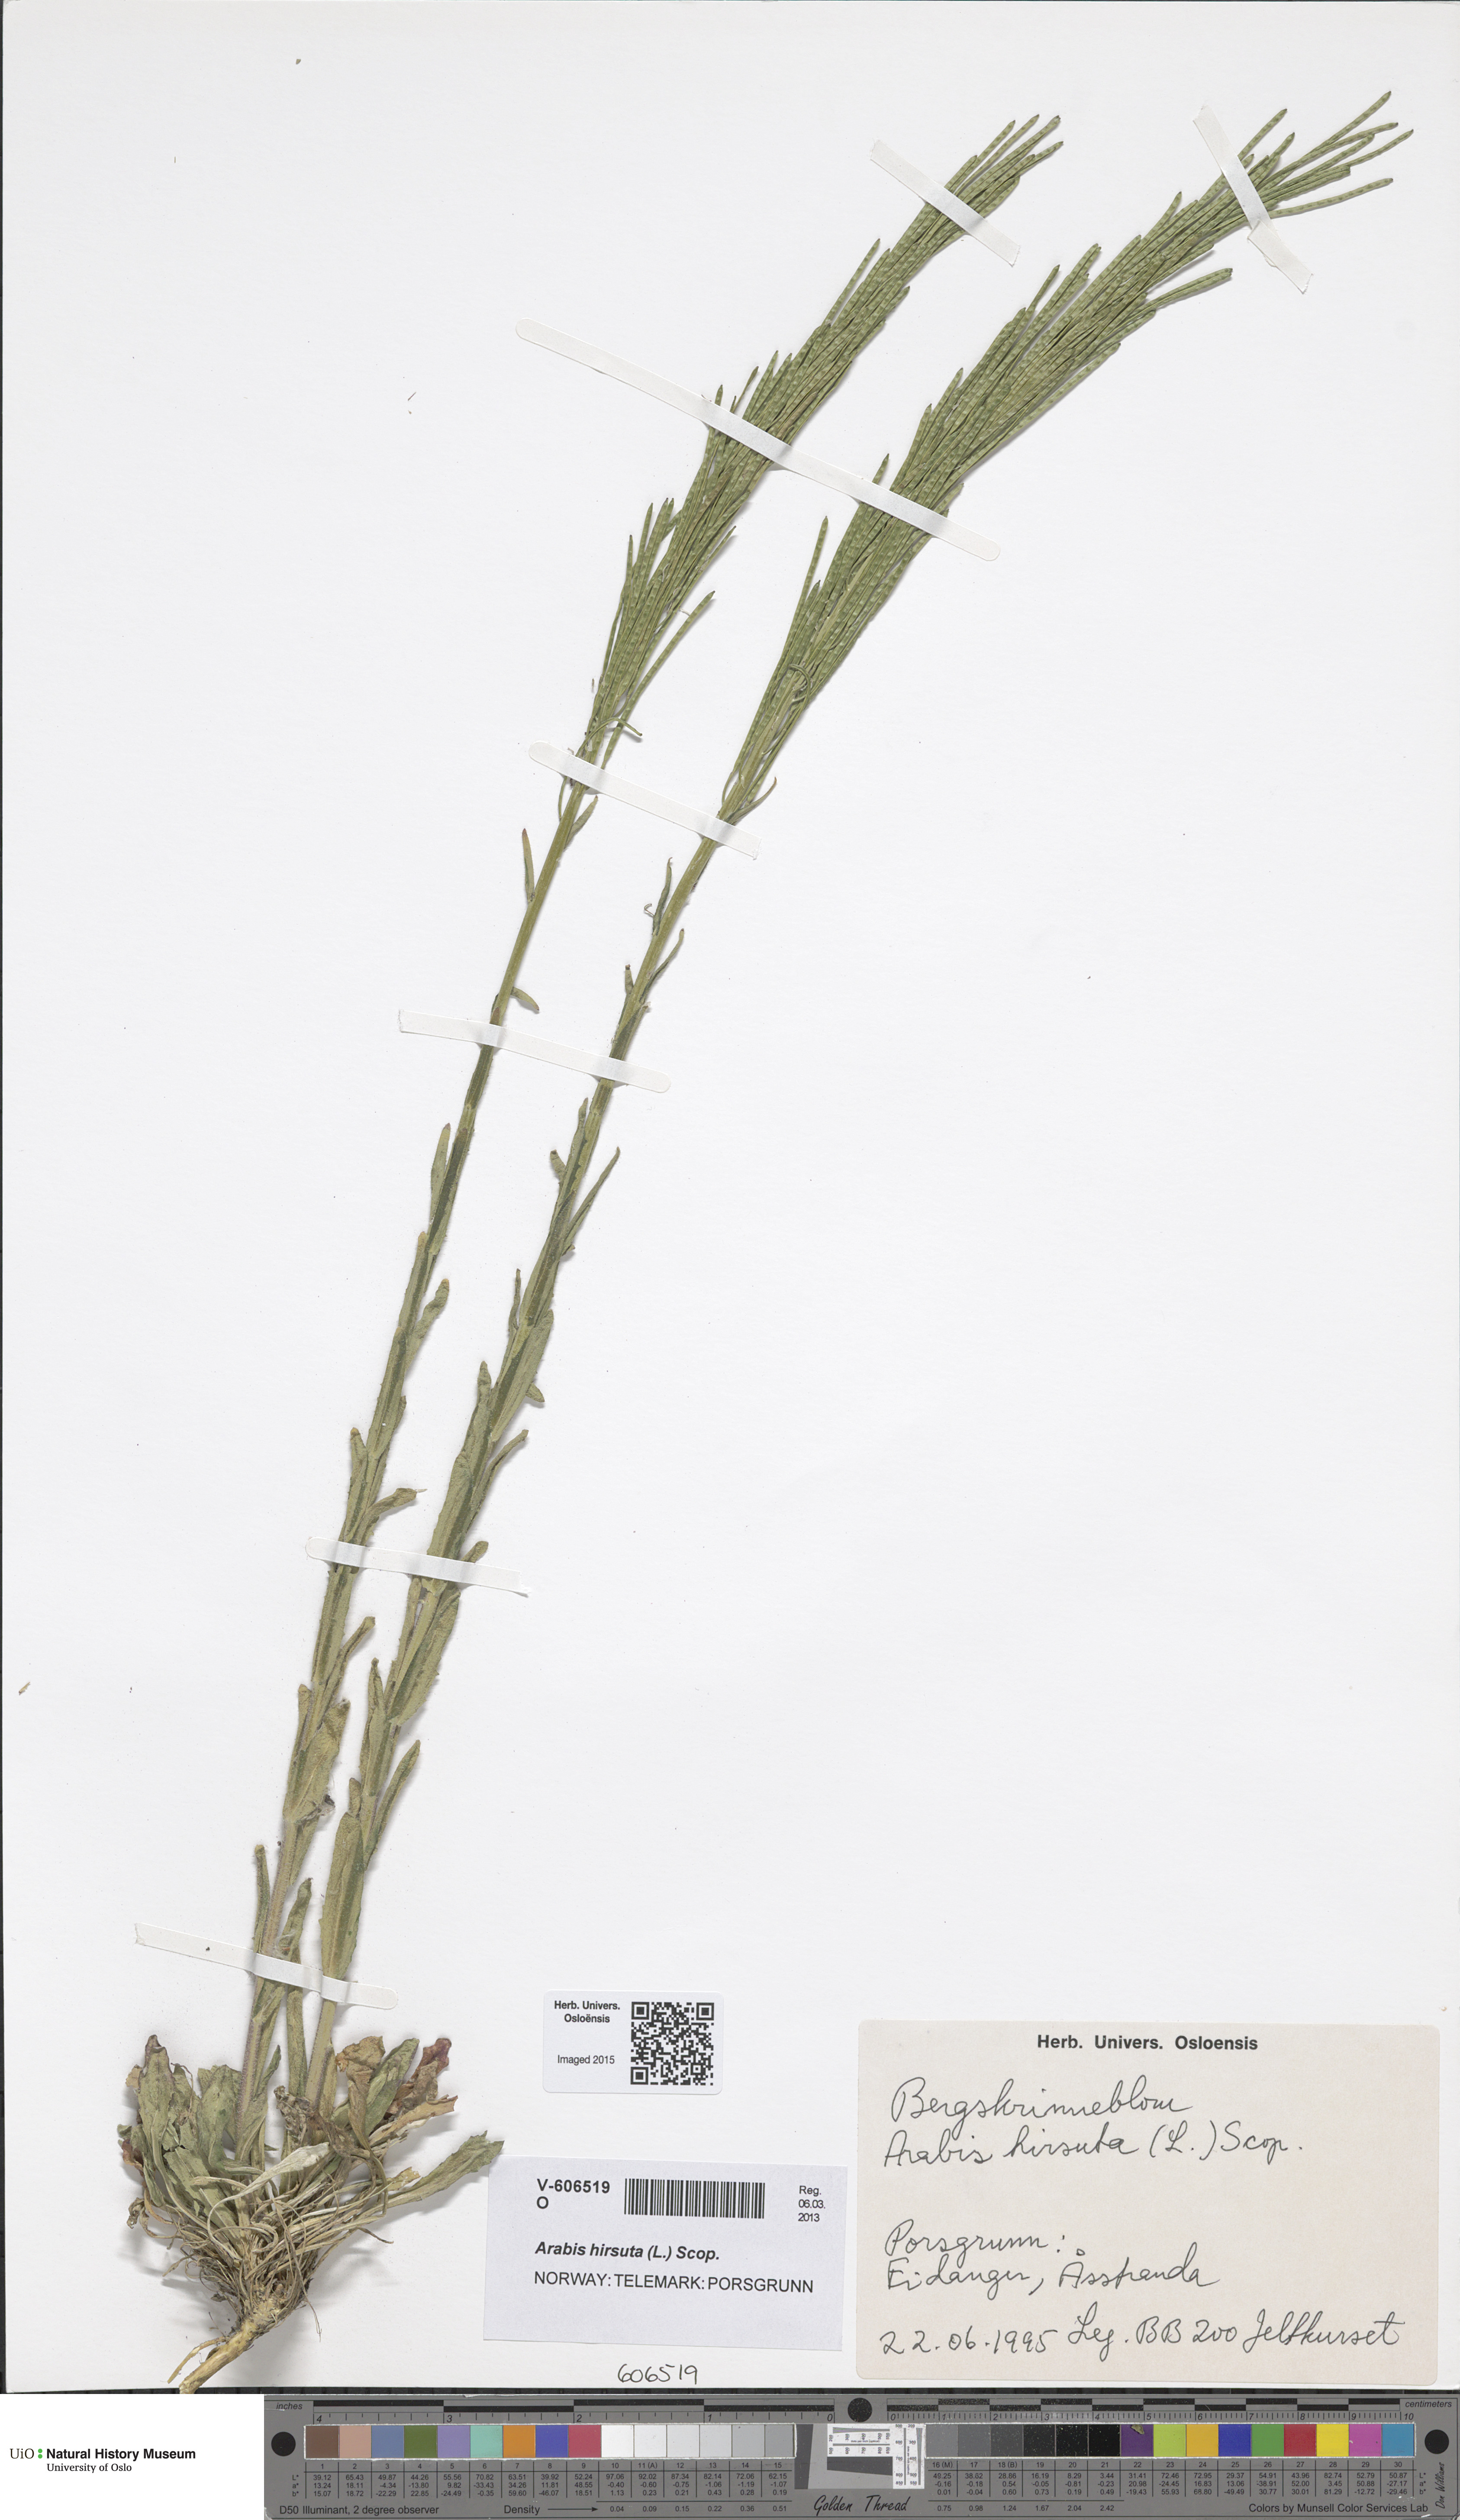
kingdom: Plantae
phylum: Tracheophyta
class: Magnoliopsida
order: Brassicales
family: Brassicaceae
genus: Arabis
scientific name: Arabis hirsuta
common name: Hairy rock-cress
